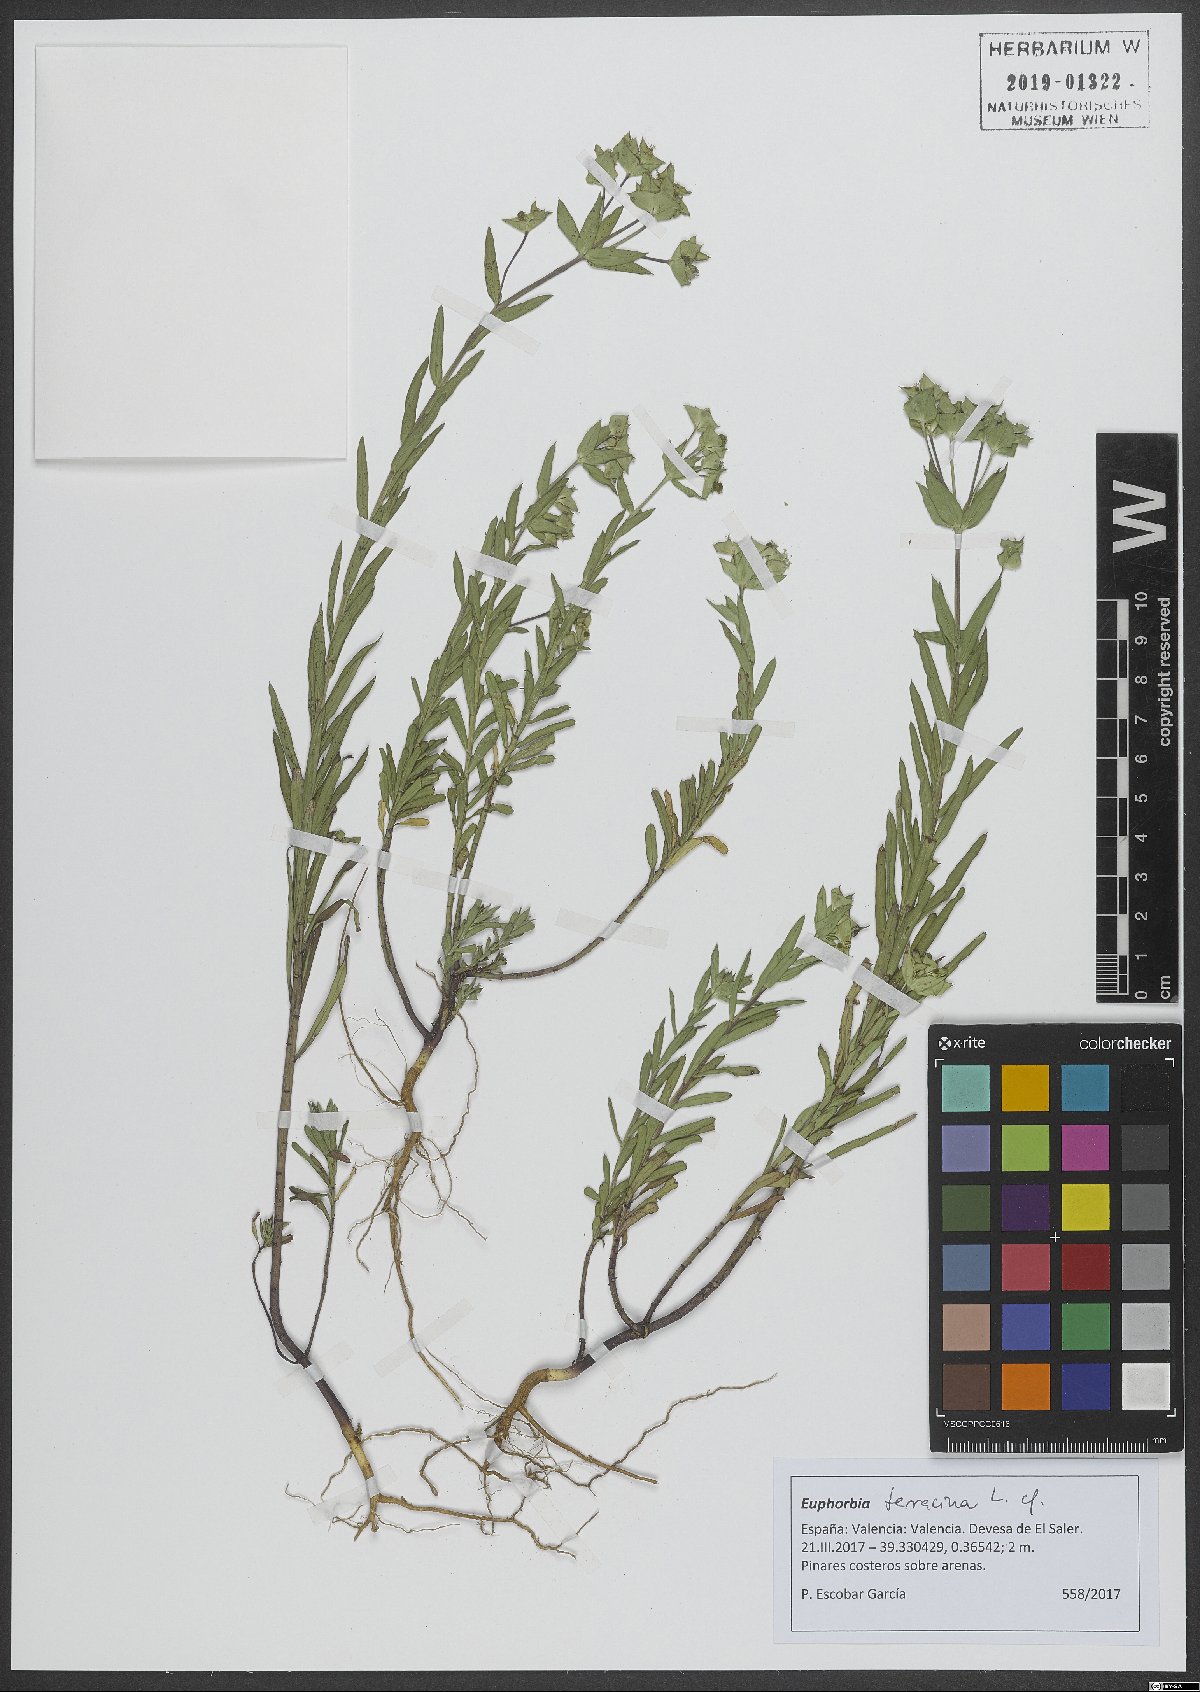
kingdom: Plantae
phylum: Tracheophyta
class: Magnoliopsida
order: Malpighiales
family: Euphorbiaceae
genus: Euphorbia
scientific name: Euphorbia terracina
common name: Geraldton carnation weed
